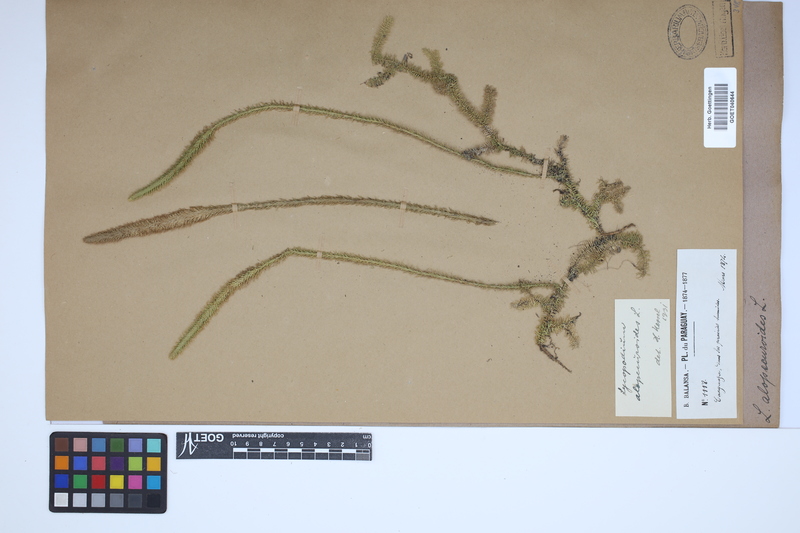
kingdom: Plantae
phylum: Tracheophyta
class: Lycopodiopsida
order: Lycopodiales
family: Lycopodiaceae
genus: Phlegmariurus
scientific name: Phlegmariurus affinis
